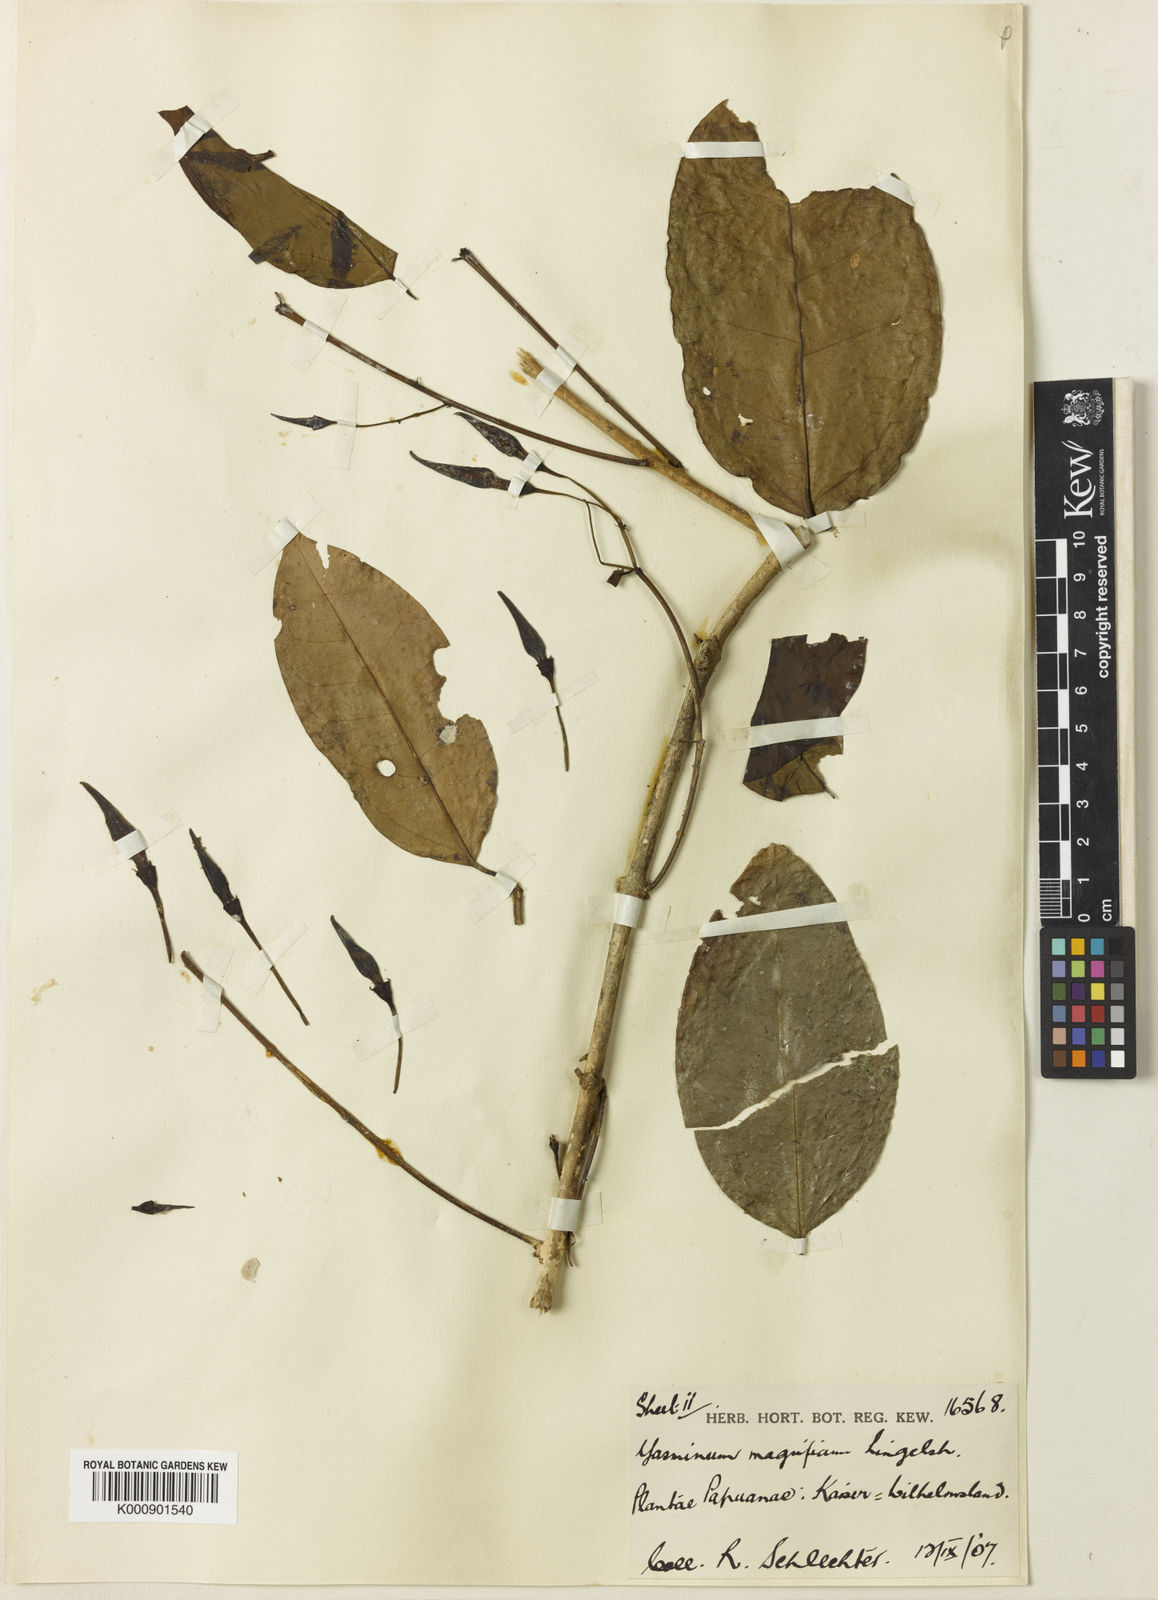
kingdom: Plantae
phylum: Tracheophyta
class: Magnoliopsida
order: Lamiales
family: Oleaceae
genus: Jasminum
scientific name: Jasminum magnificum
